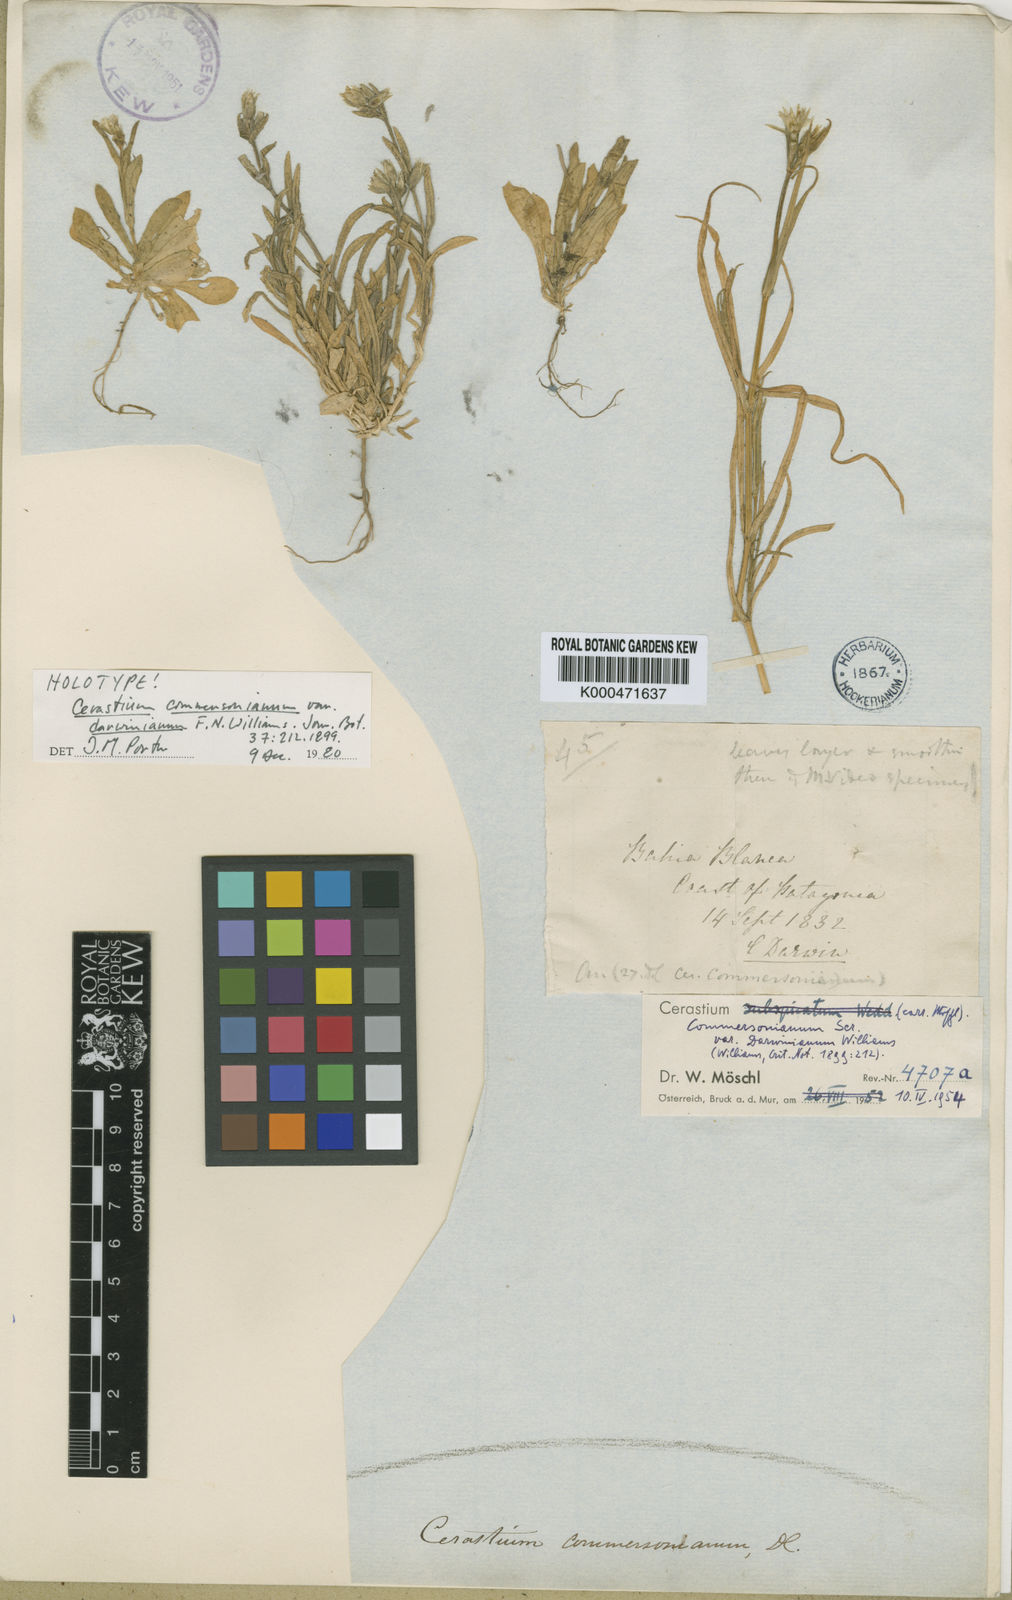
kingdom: Plantae
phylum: Tracheophyta
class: Magnoliopsida
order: Caryophyllales
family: Caryophyllaceae
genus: Cerastium
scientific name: Cerastium
